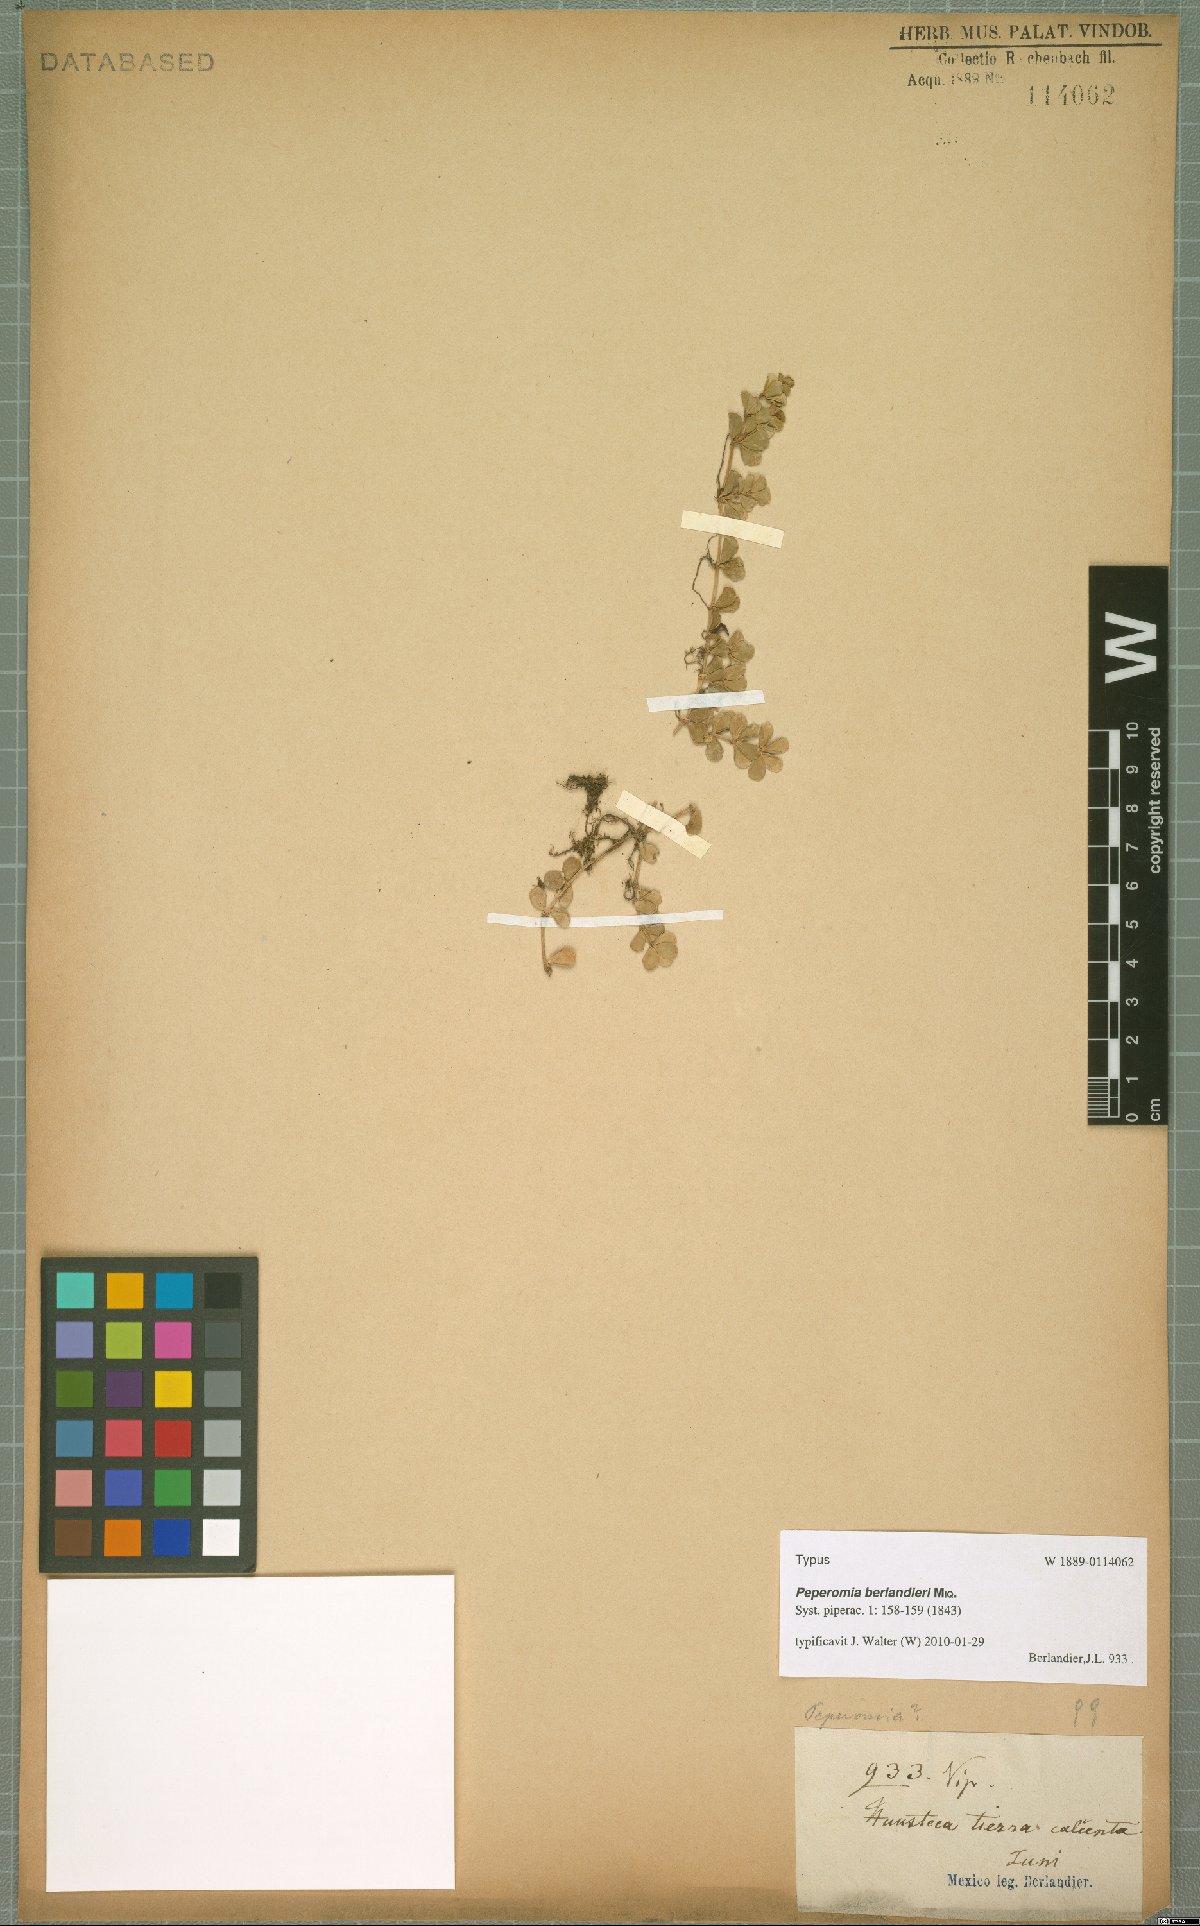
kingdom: Plantae
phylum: Tracheophyta
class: Magnoliopsida
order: Piperales
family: Piperaceae
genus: Peperomia
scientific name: Peperomia berlandieri
